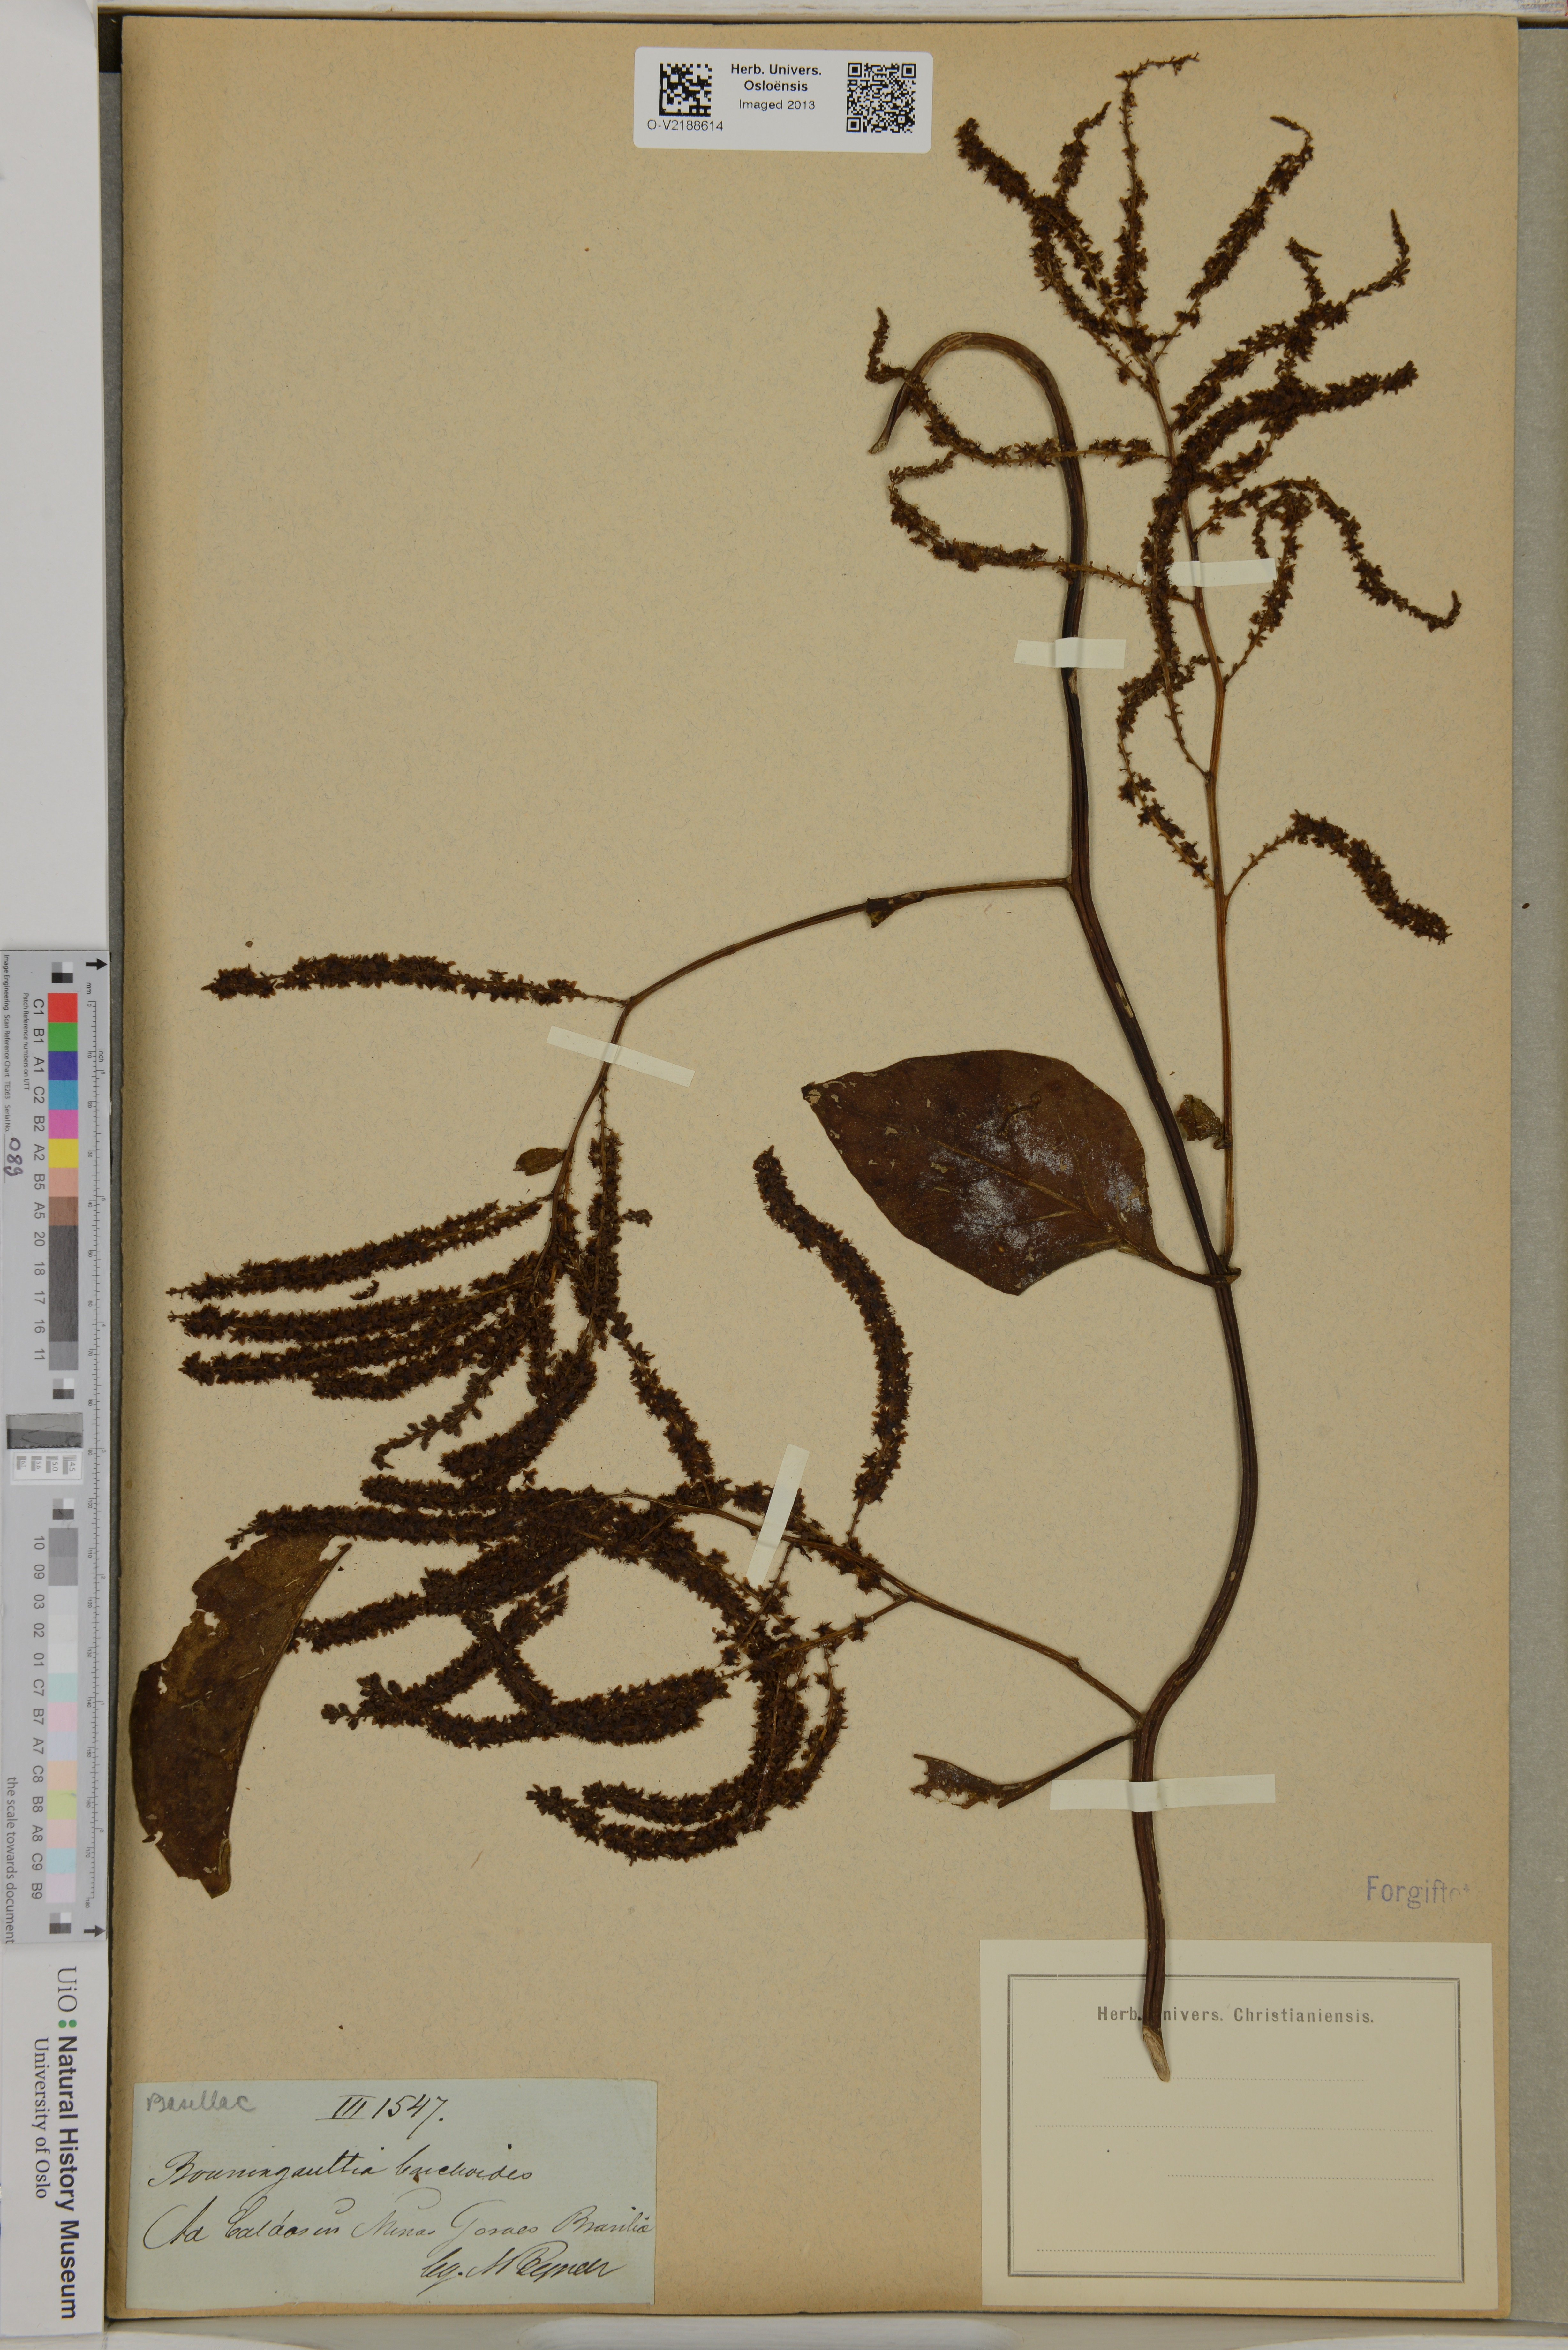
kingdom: Plantae
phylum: Tracheophyta
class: Magnoliopsida
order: Caryophyllales
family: Basellaceae
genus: Anredera
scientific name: Anredera
